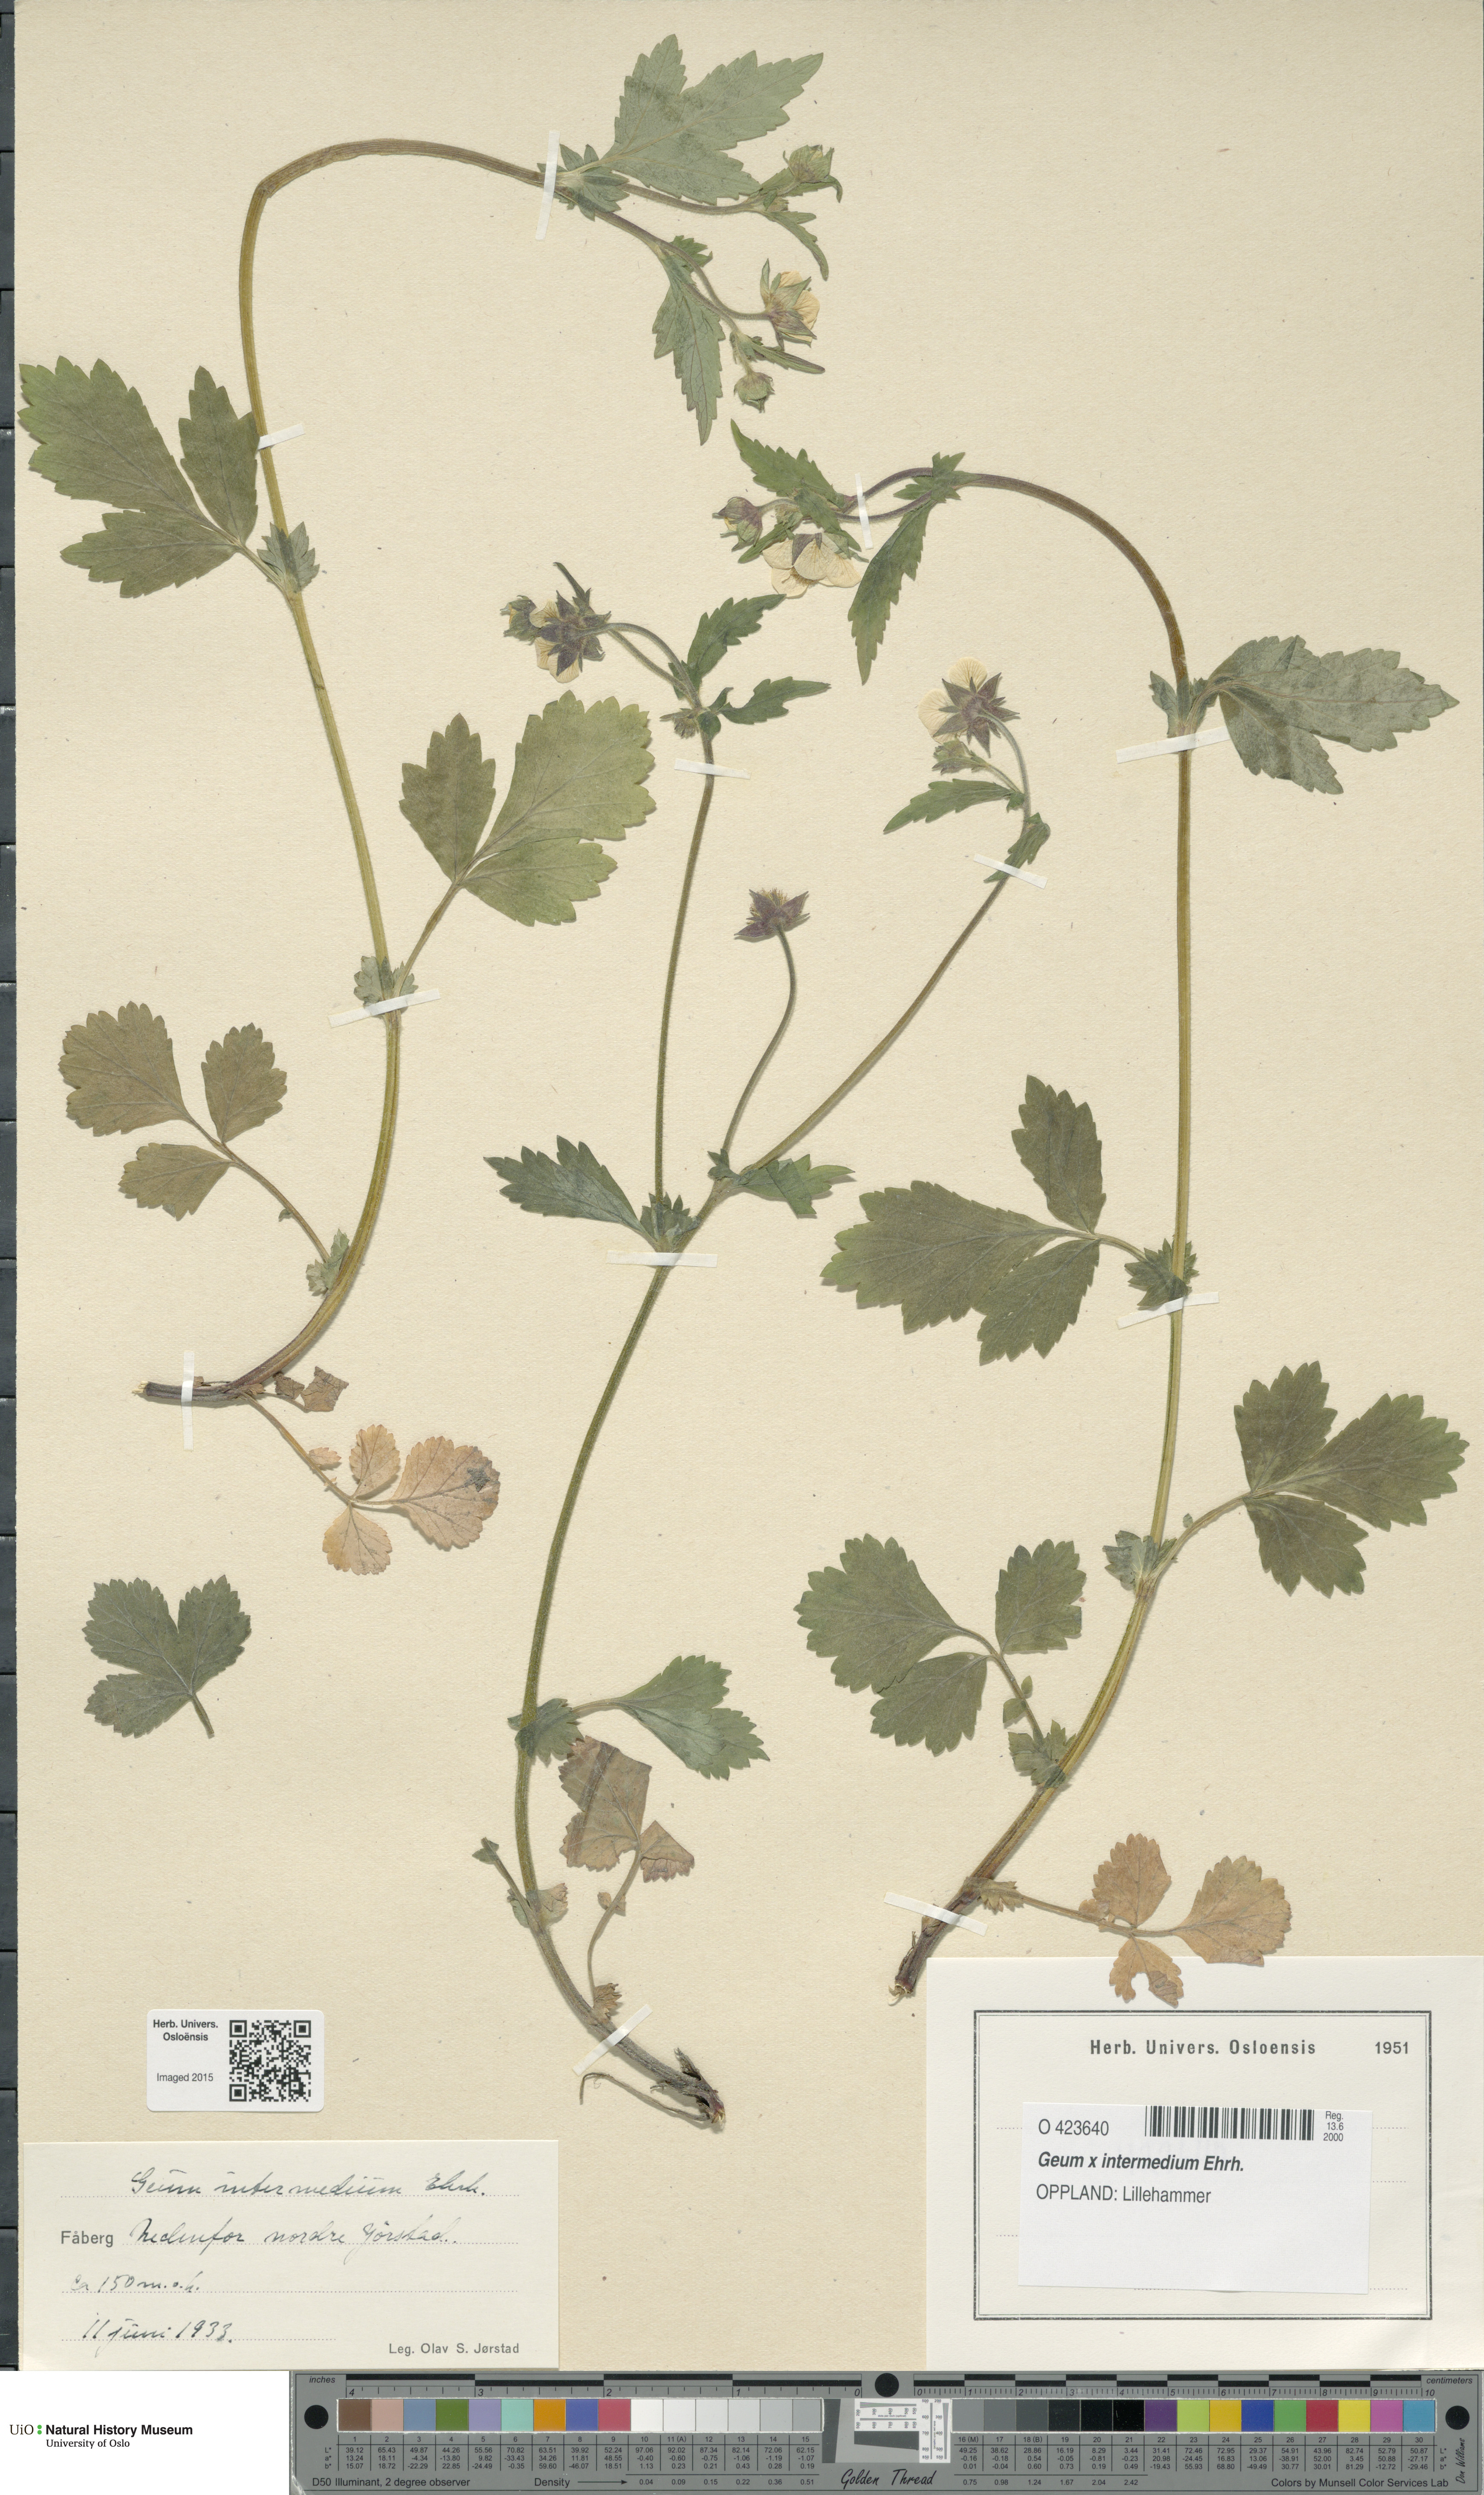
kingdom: Plantae
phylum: Tracheophyta
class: Magnoliopsida
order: Rosales
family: Rosaceae
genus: Geum
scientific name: Geum intermedium
